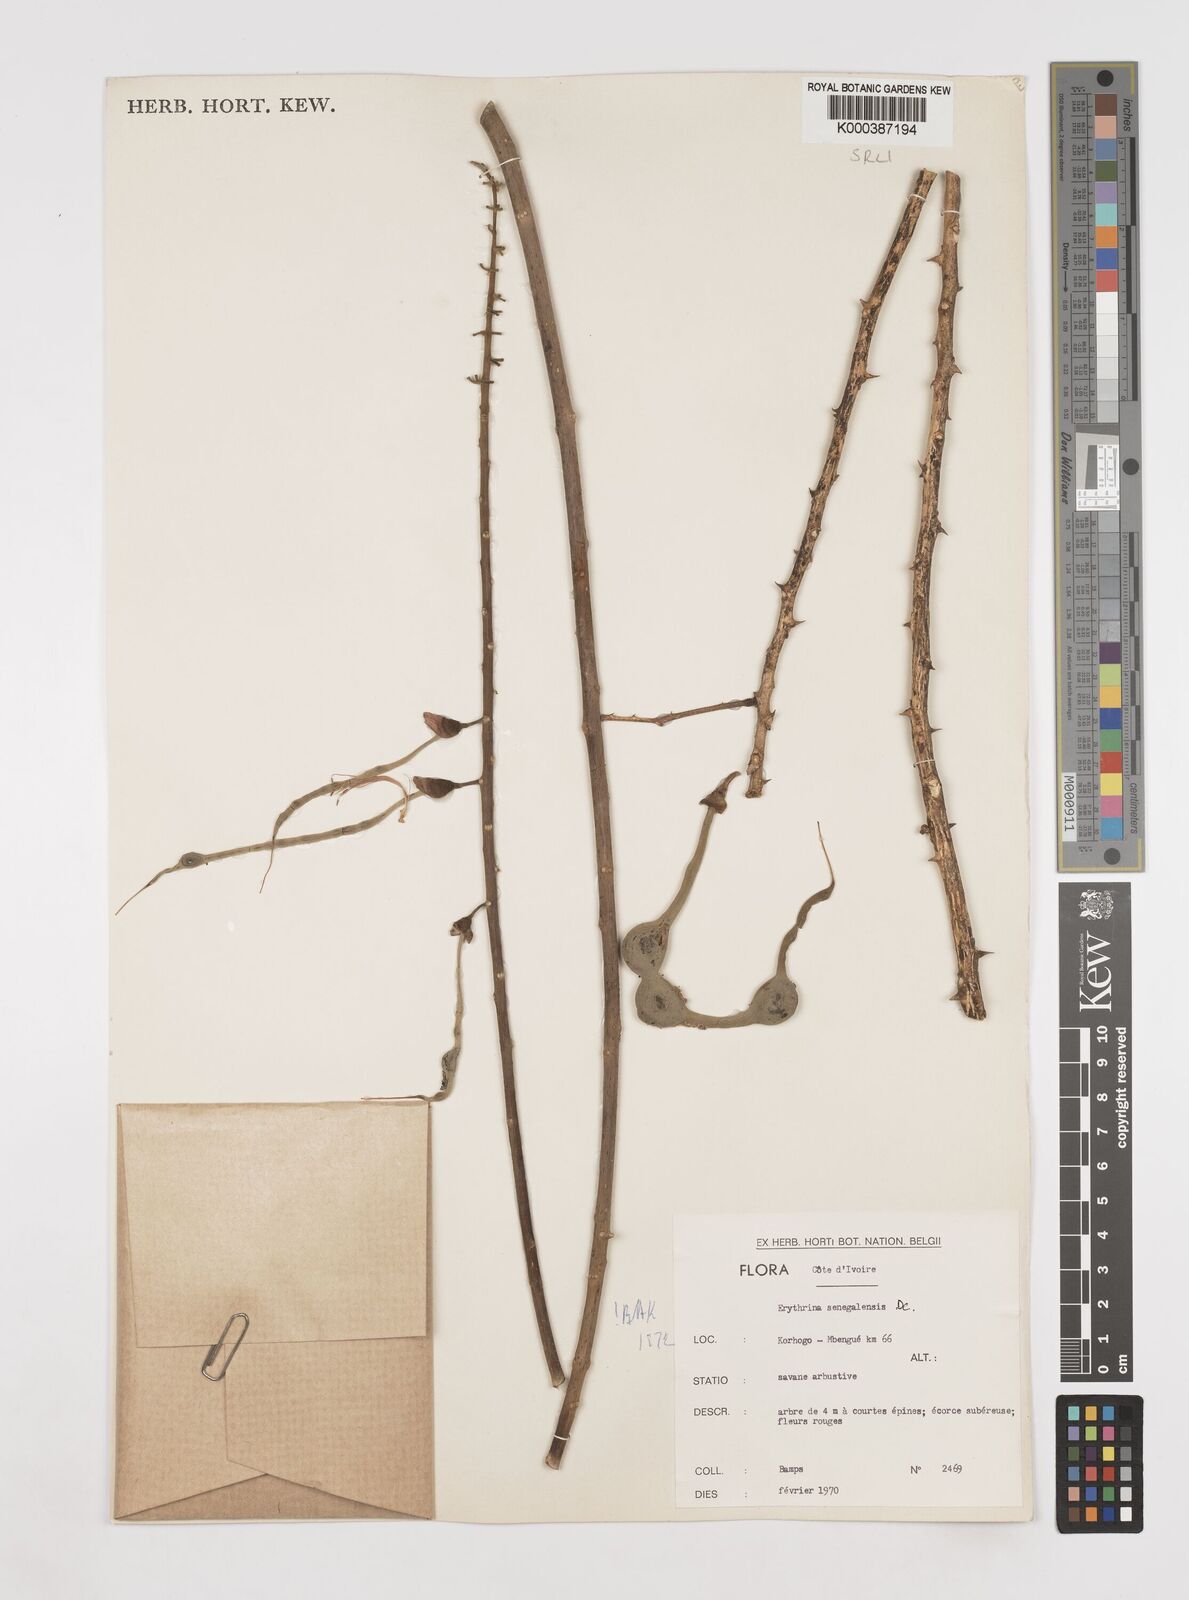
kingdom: Plantae
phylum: Tracheophyta
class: Magnoliopsida
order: Fabales
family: Fabaceae
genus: Erythrina
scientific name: Erythrina senegalensis
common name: Senegal coraltree
